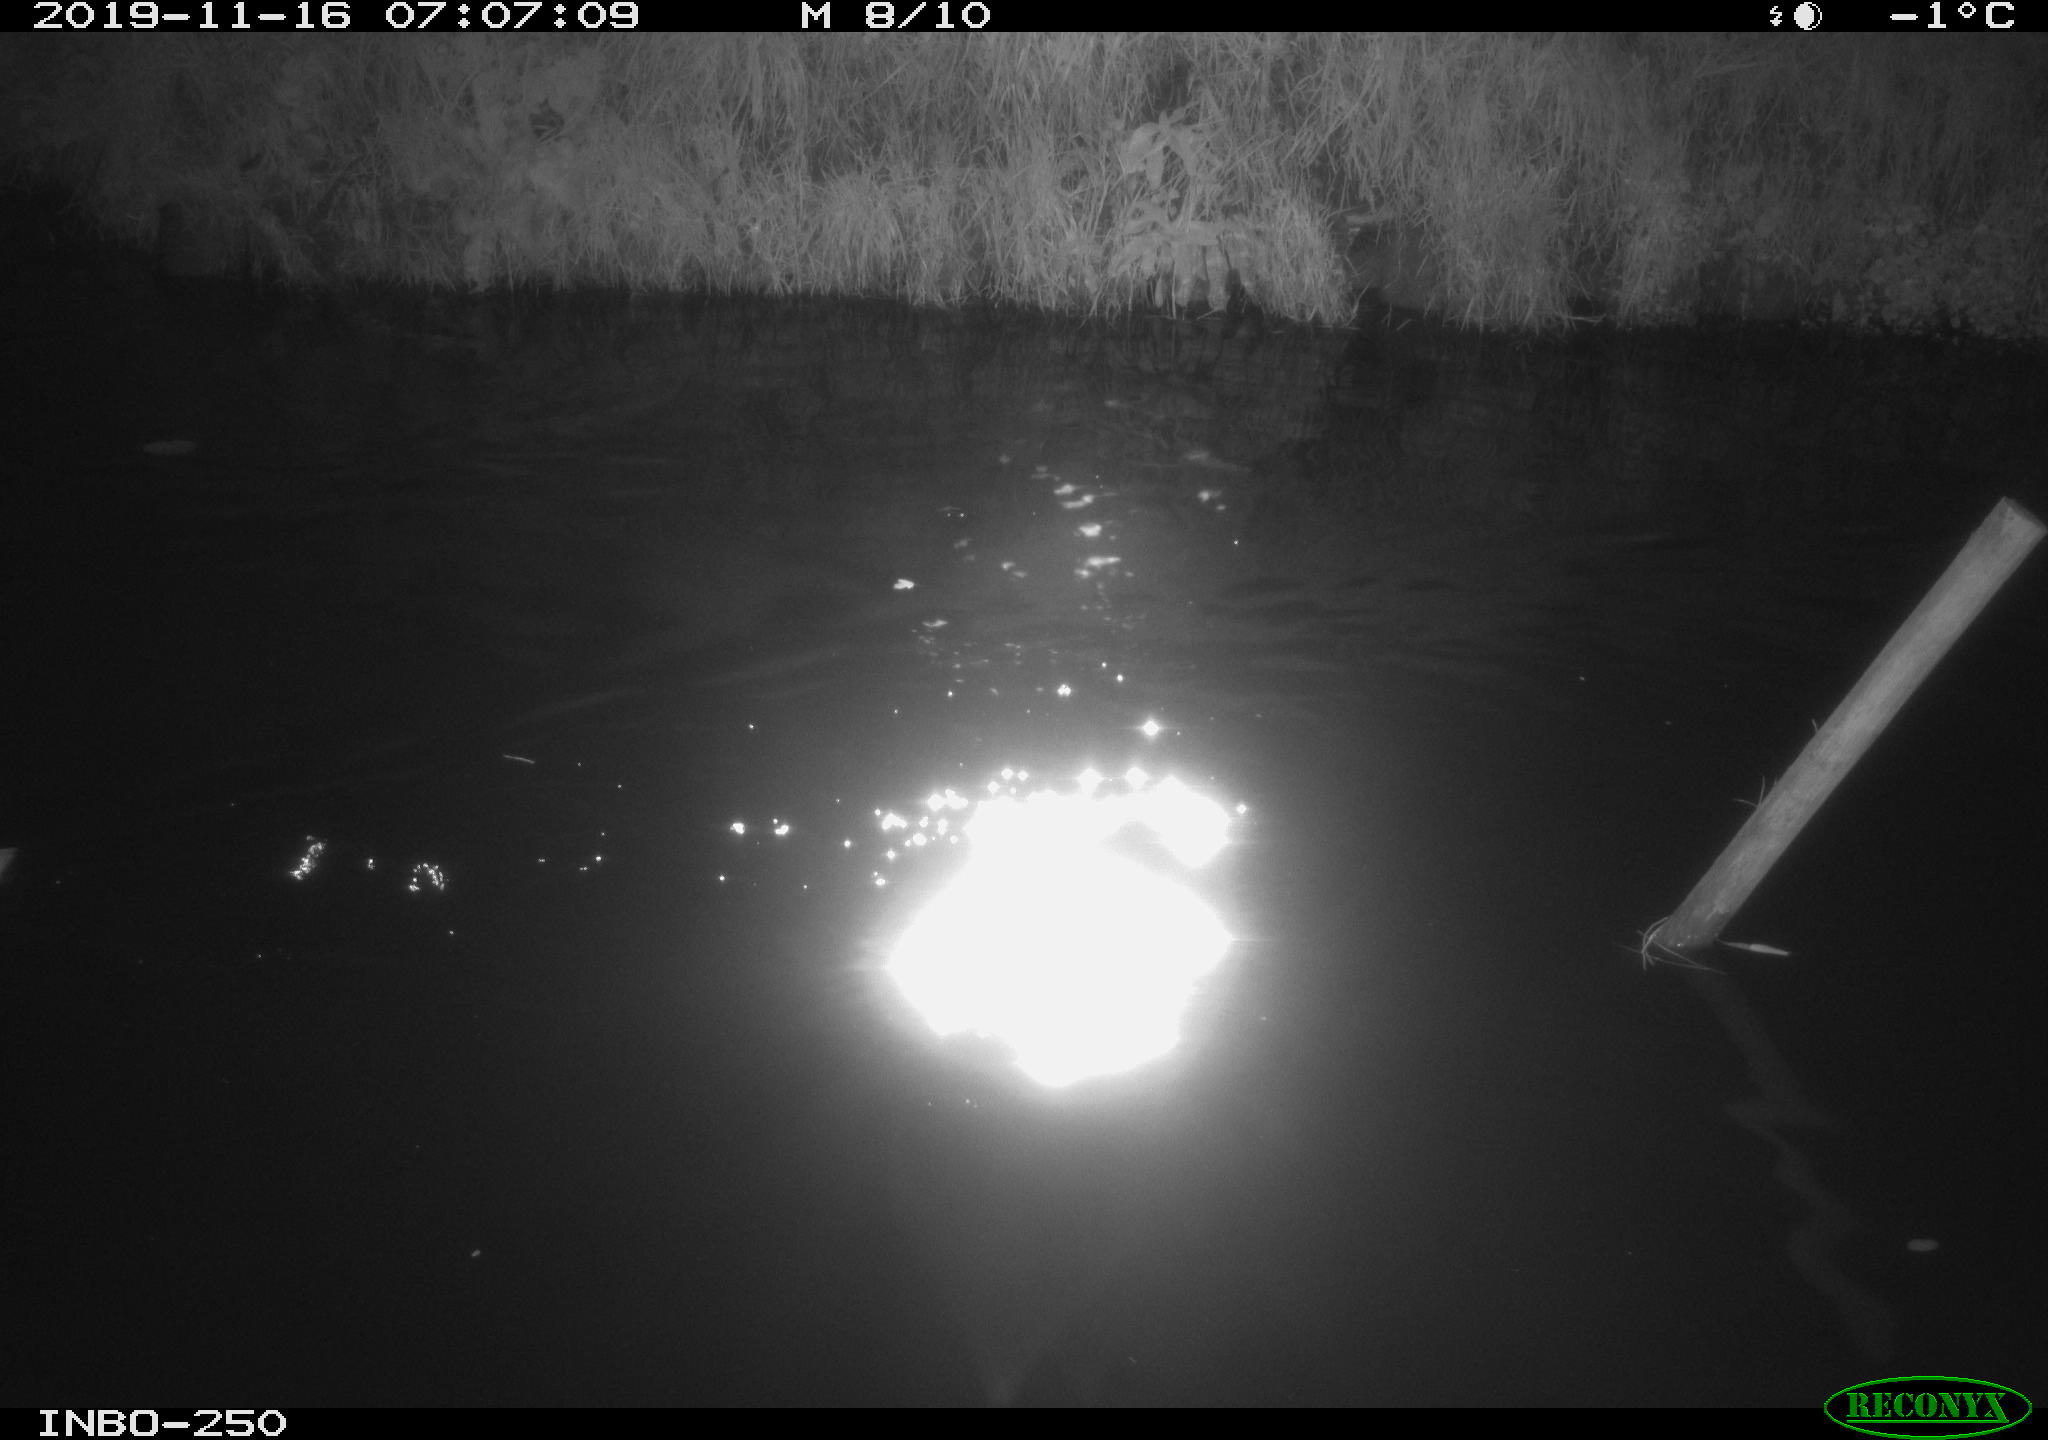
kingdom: Animalia
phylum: Chordata
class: Aves
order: Anseriformes
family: Anatidae
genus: Anas
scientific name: Anas platyrhynchos
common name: Mallard
